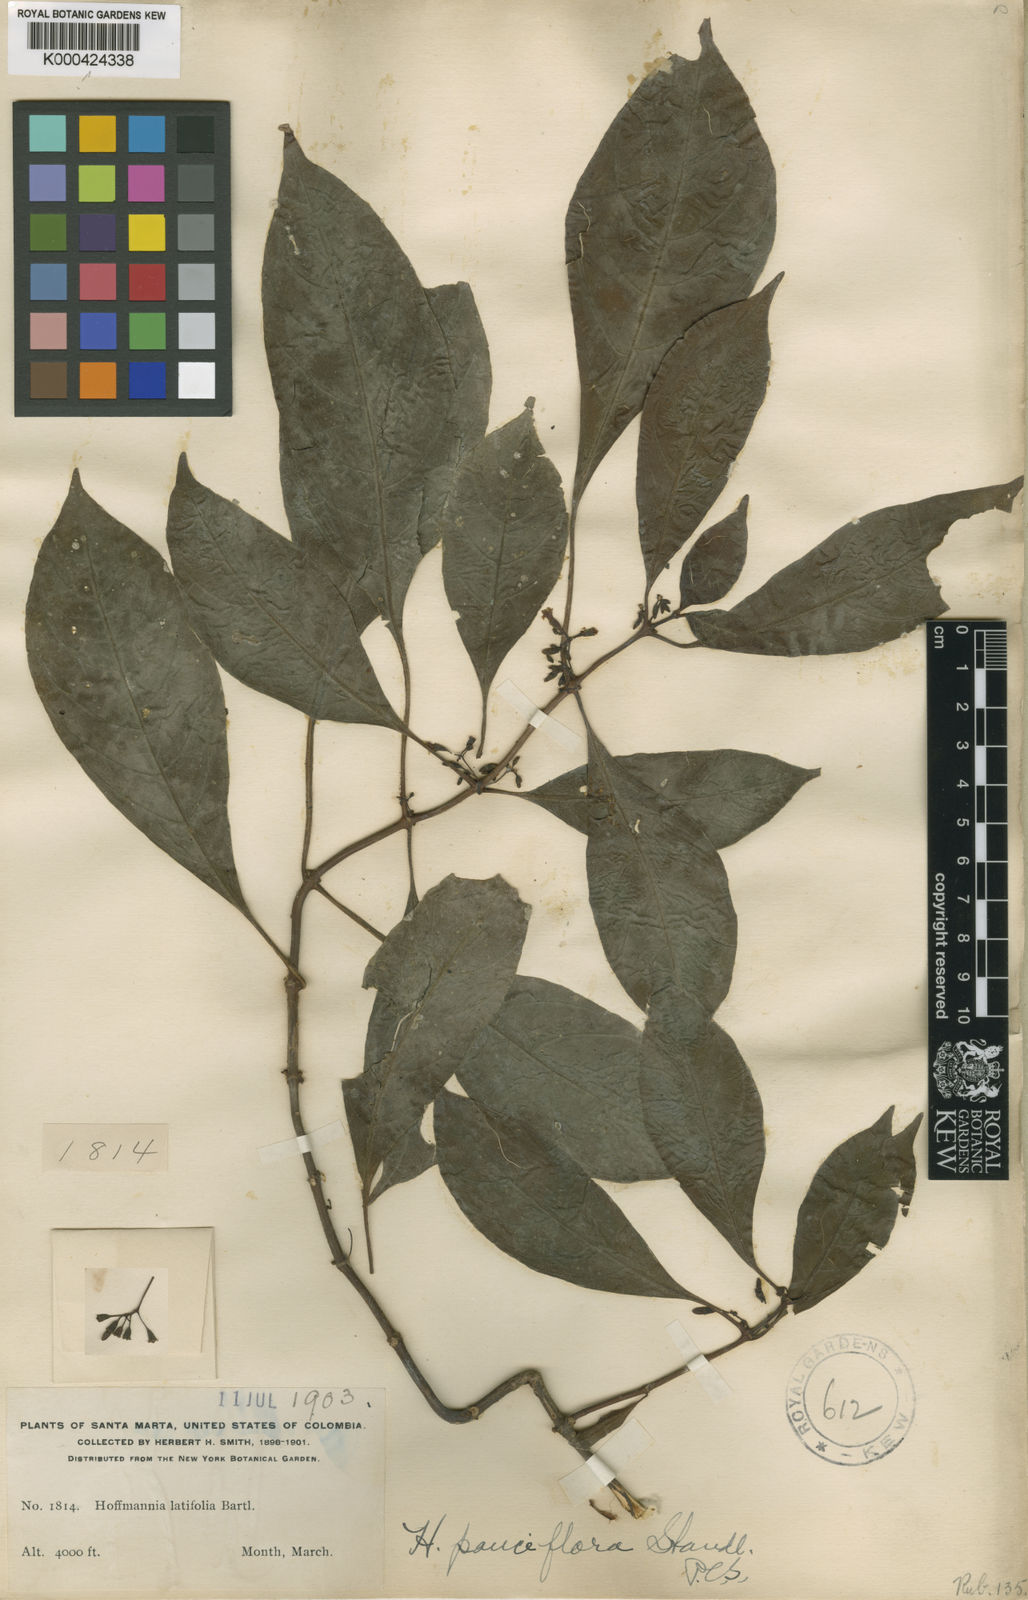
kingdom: Plantae
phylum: Tracheophyta
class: Magnoliopsida
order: Gentianales
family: Rubiaceae
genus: Hoffmannia
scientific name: Hoffmannia pauciflora
